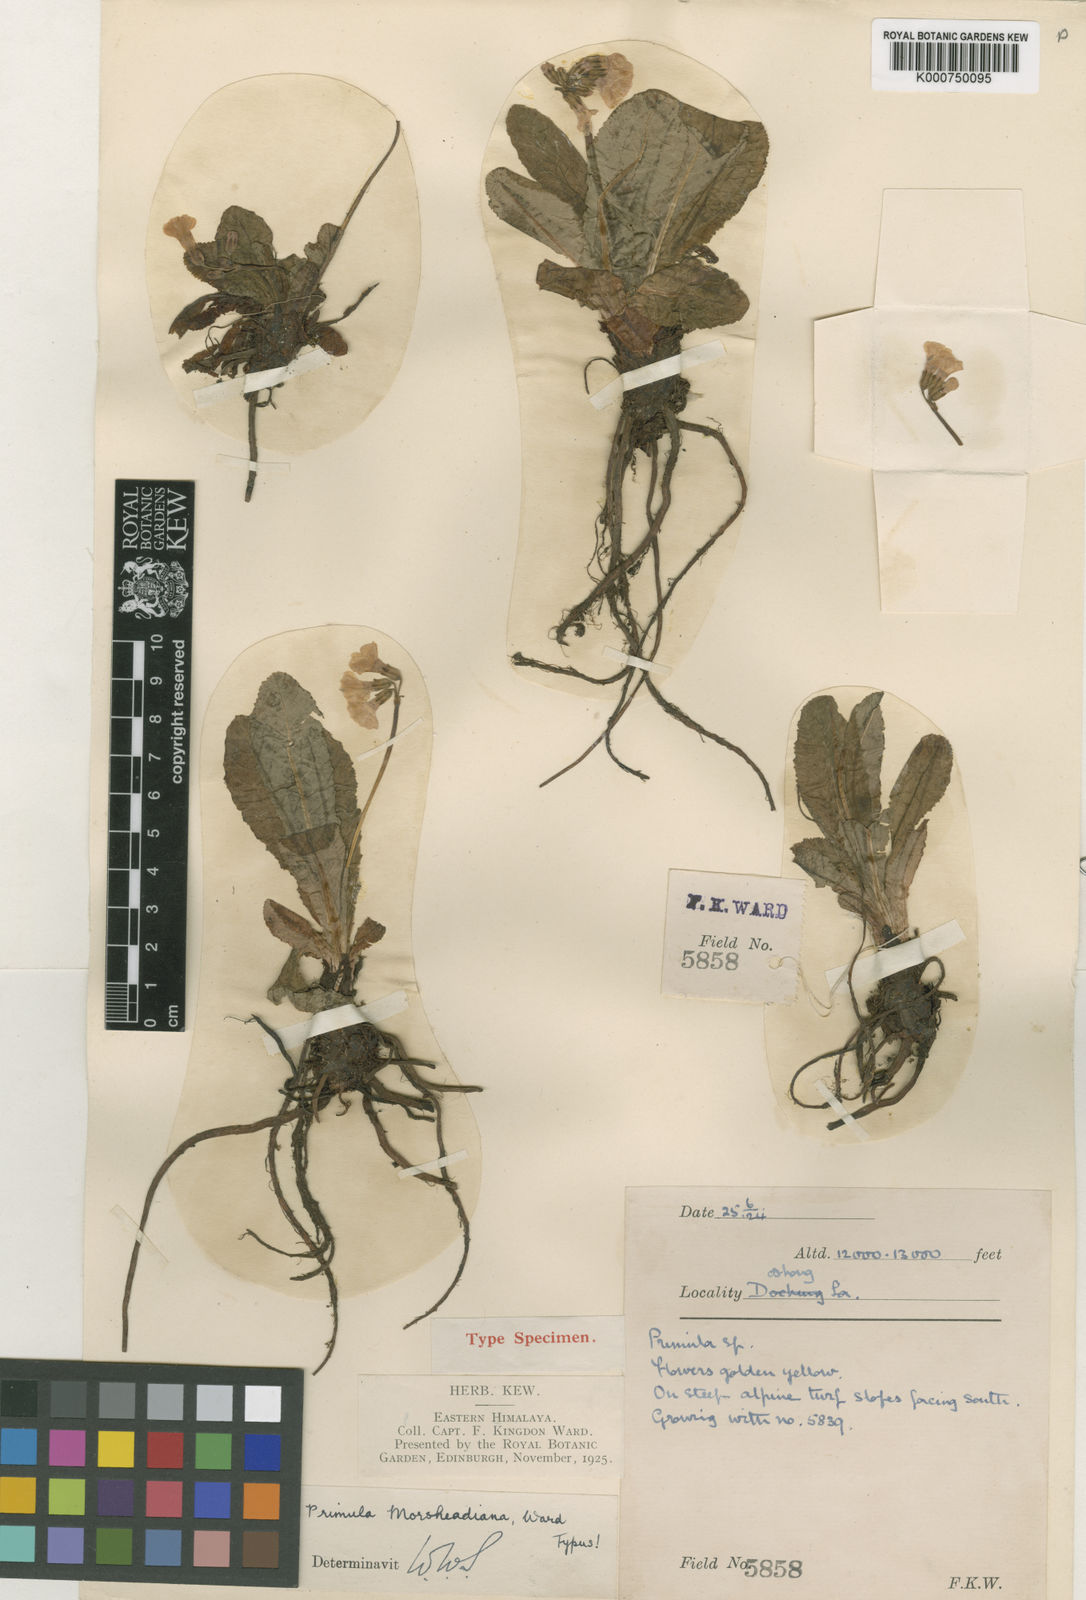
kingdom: Plantae
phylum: Tracheophyta
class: Magnoliopsida
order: Ericales
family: Primulaceae
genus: Primula
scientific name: Primula morsheadiana
